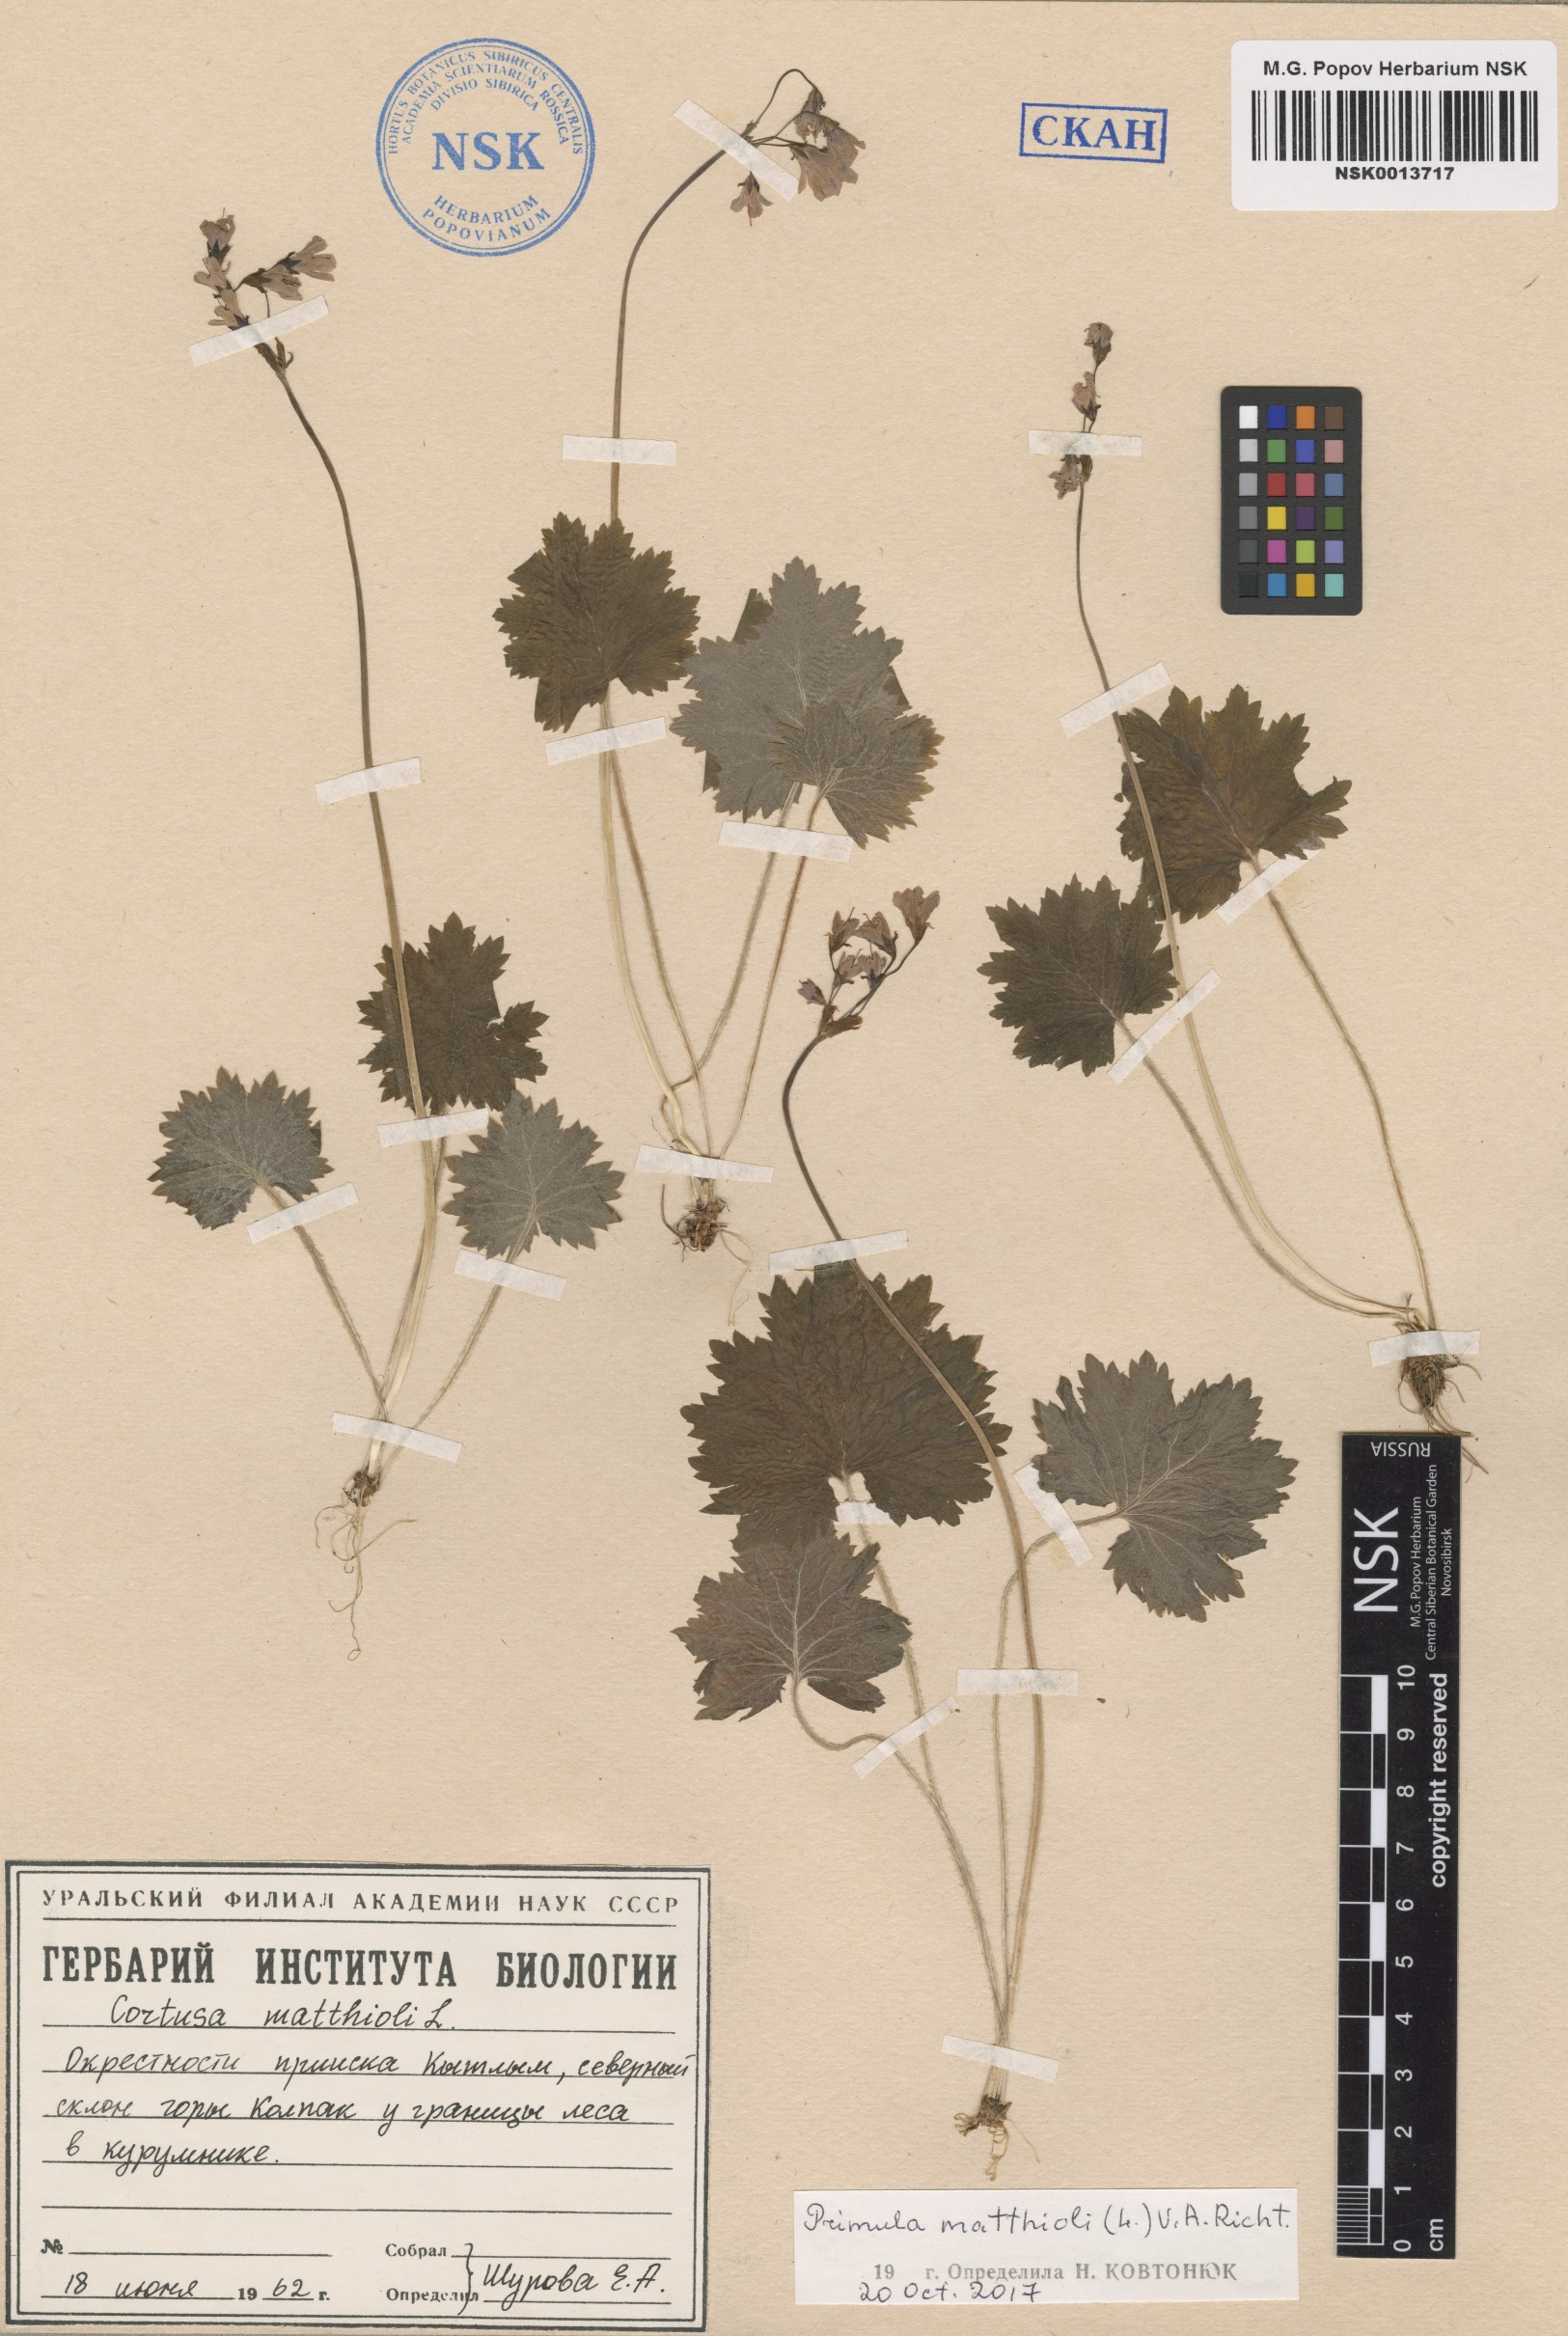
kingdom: Plantae
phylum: Tracheophyta
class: Magnoliopsida
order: Ericales
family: Primulaceae
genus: Primula
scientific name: Primula matthioli
